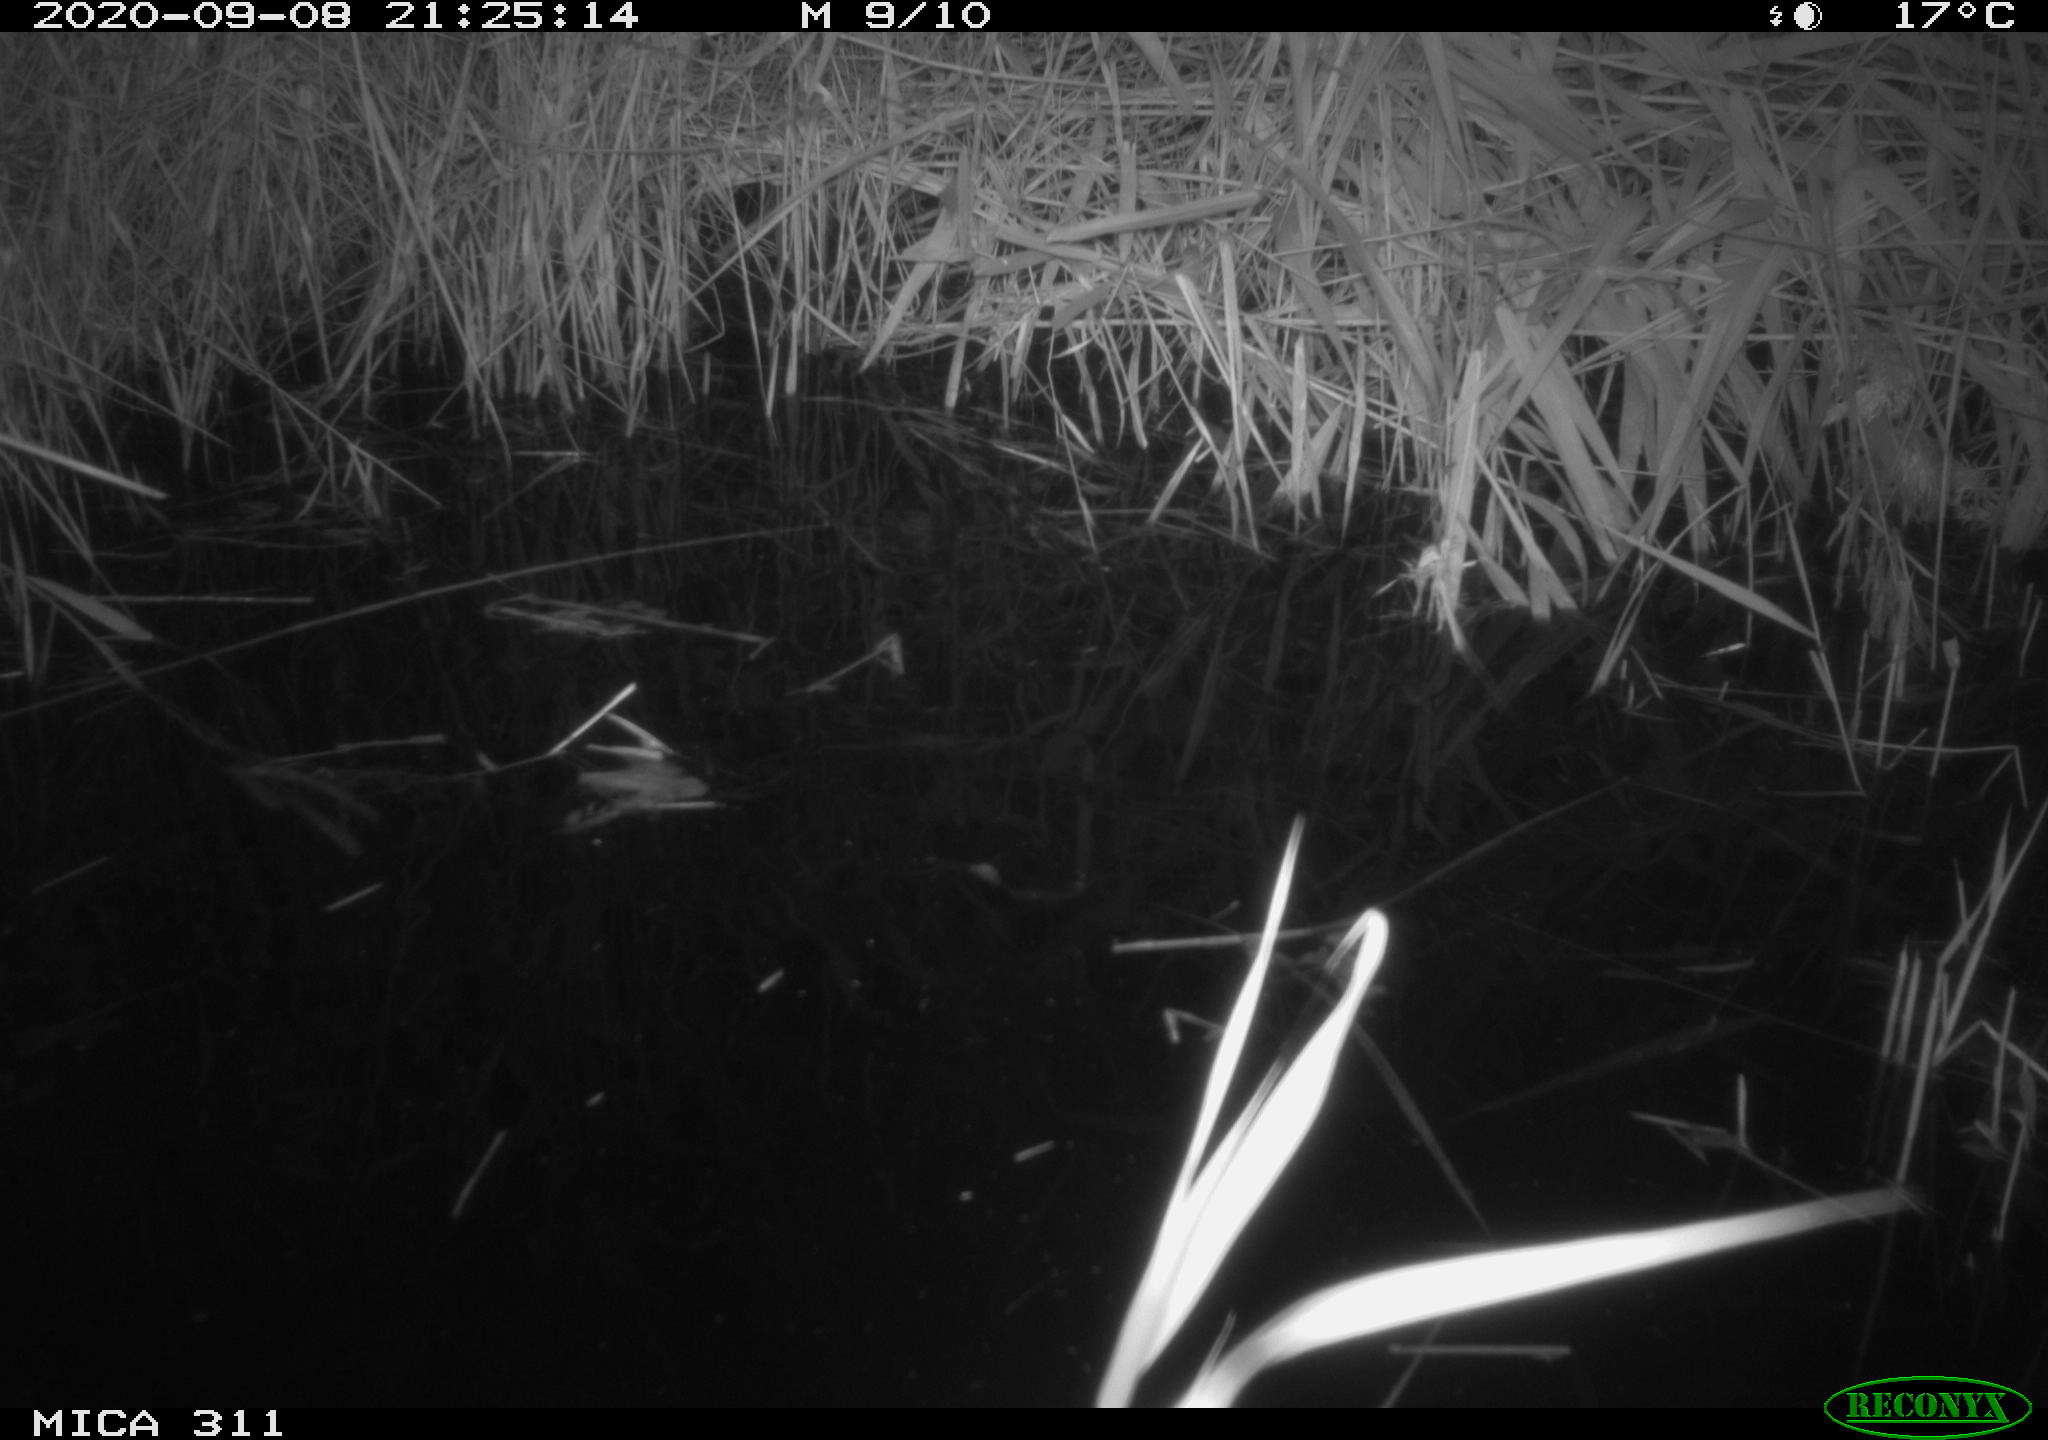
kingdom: Animalia
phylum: Chordata
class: Mammalia
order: Rodentia
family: Muridae
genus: Rattus
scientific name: Rattus norvegicus
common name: Brown rat
